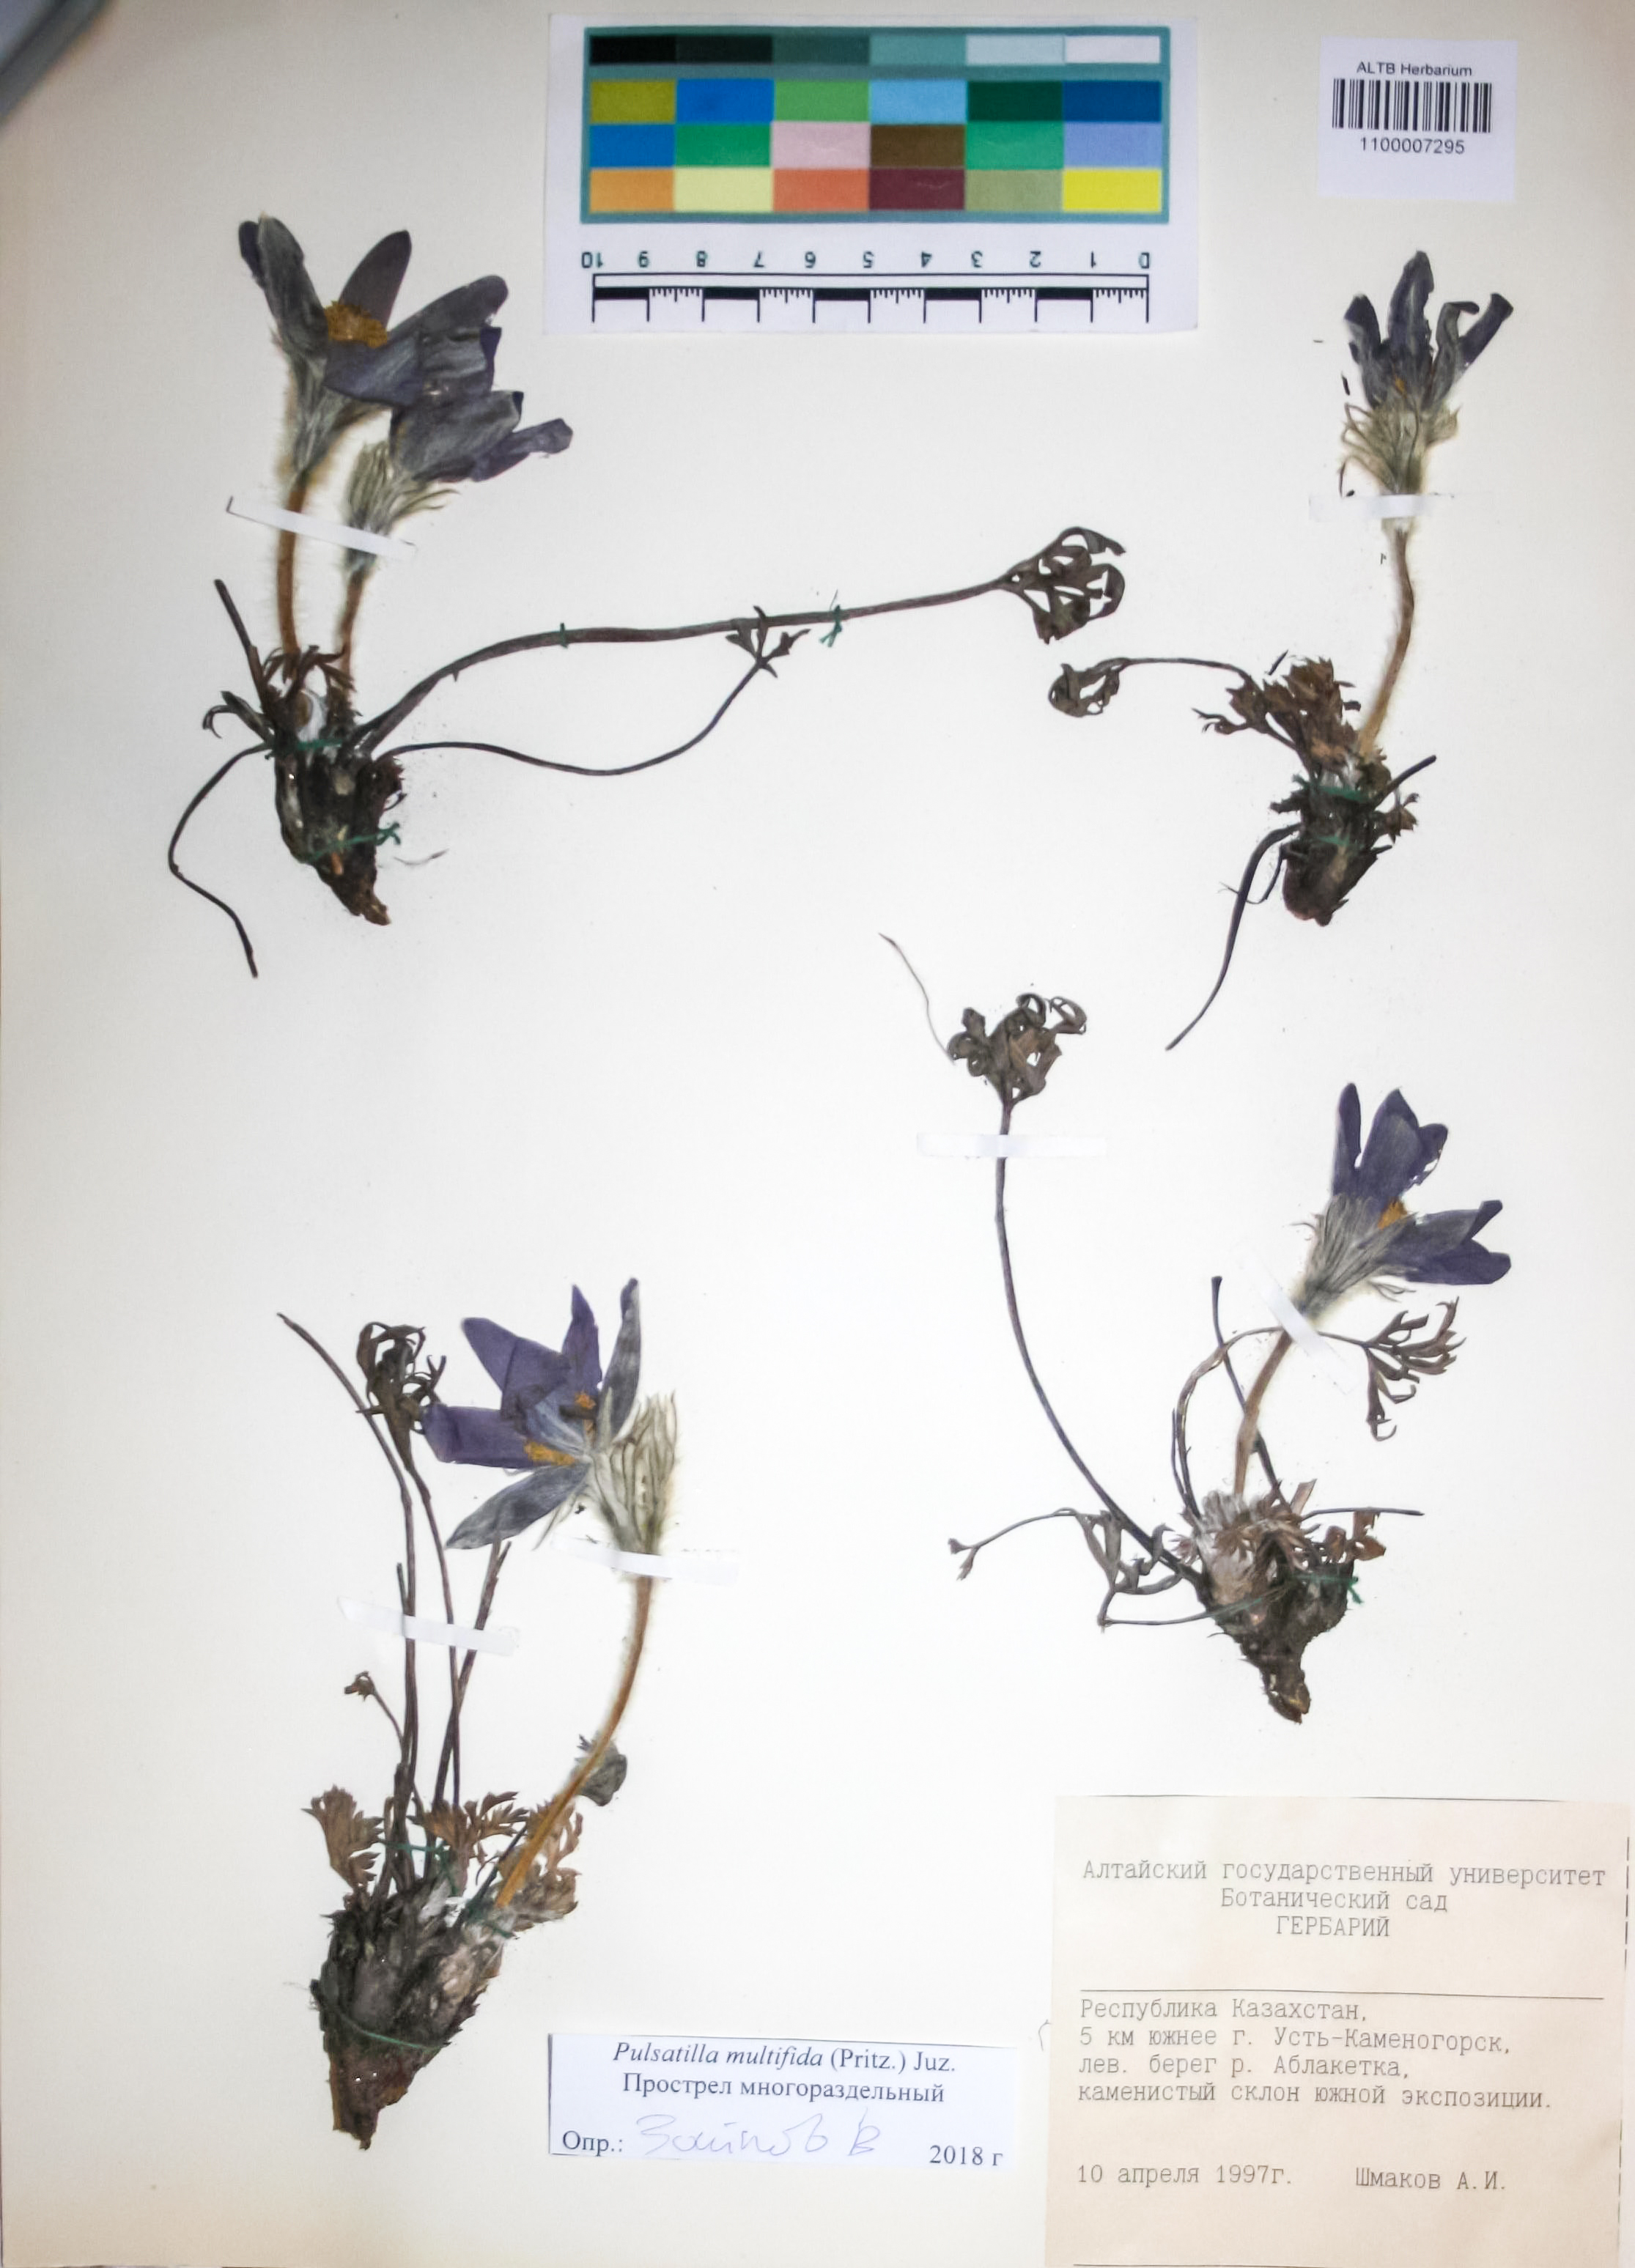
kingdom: Plantae
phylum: Tracheophyta
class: Magnoliopsida
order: Ranunculales
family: Ranunculaceae
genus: Pulsatilla
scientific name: Pulsatilla patens
